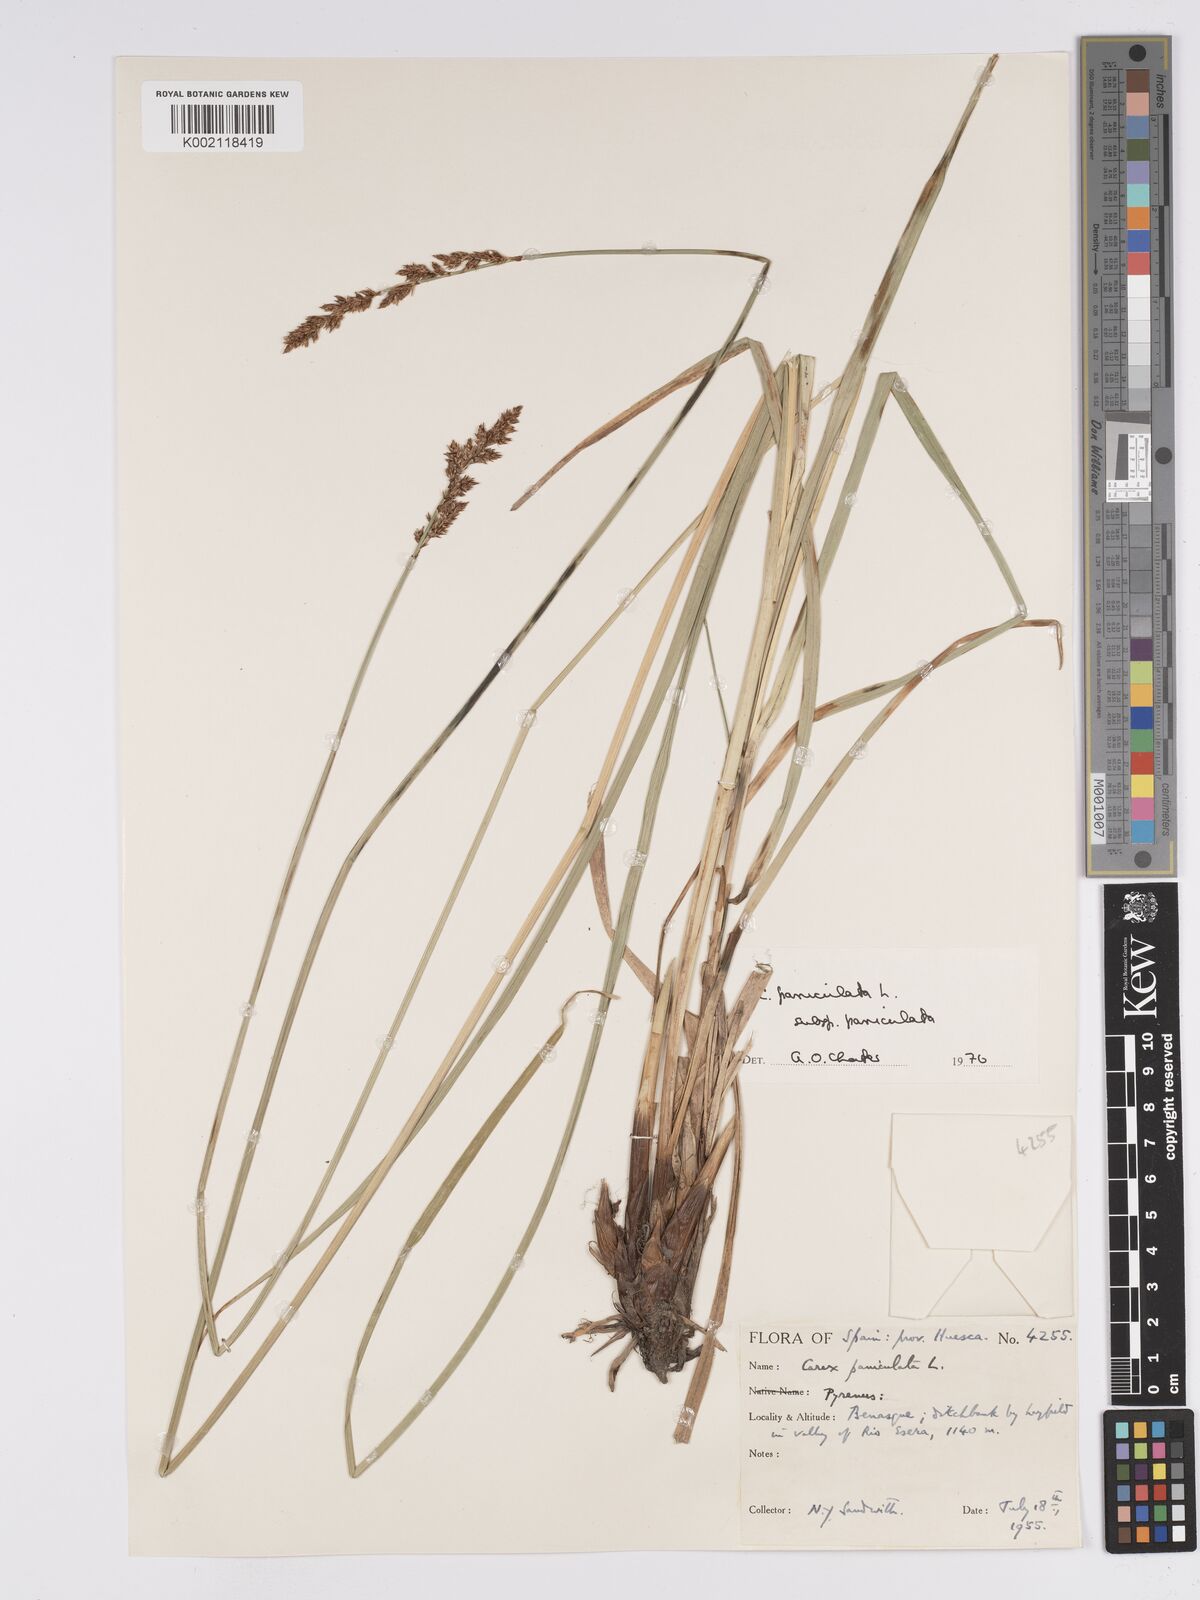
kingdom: Plantae
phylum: Tracheophyta
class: Liliopsida
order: Poales
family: Cyperaceae
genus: Carex
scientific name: Carex paniculata
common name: Greater tussock-sedge
